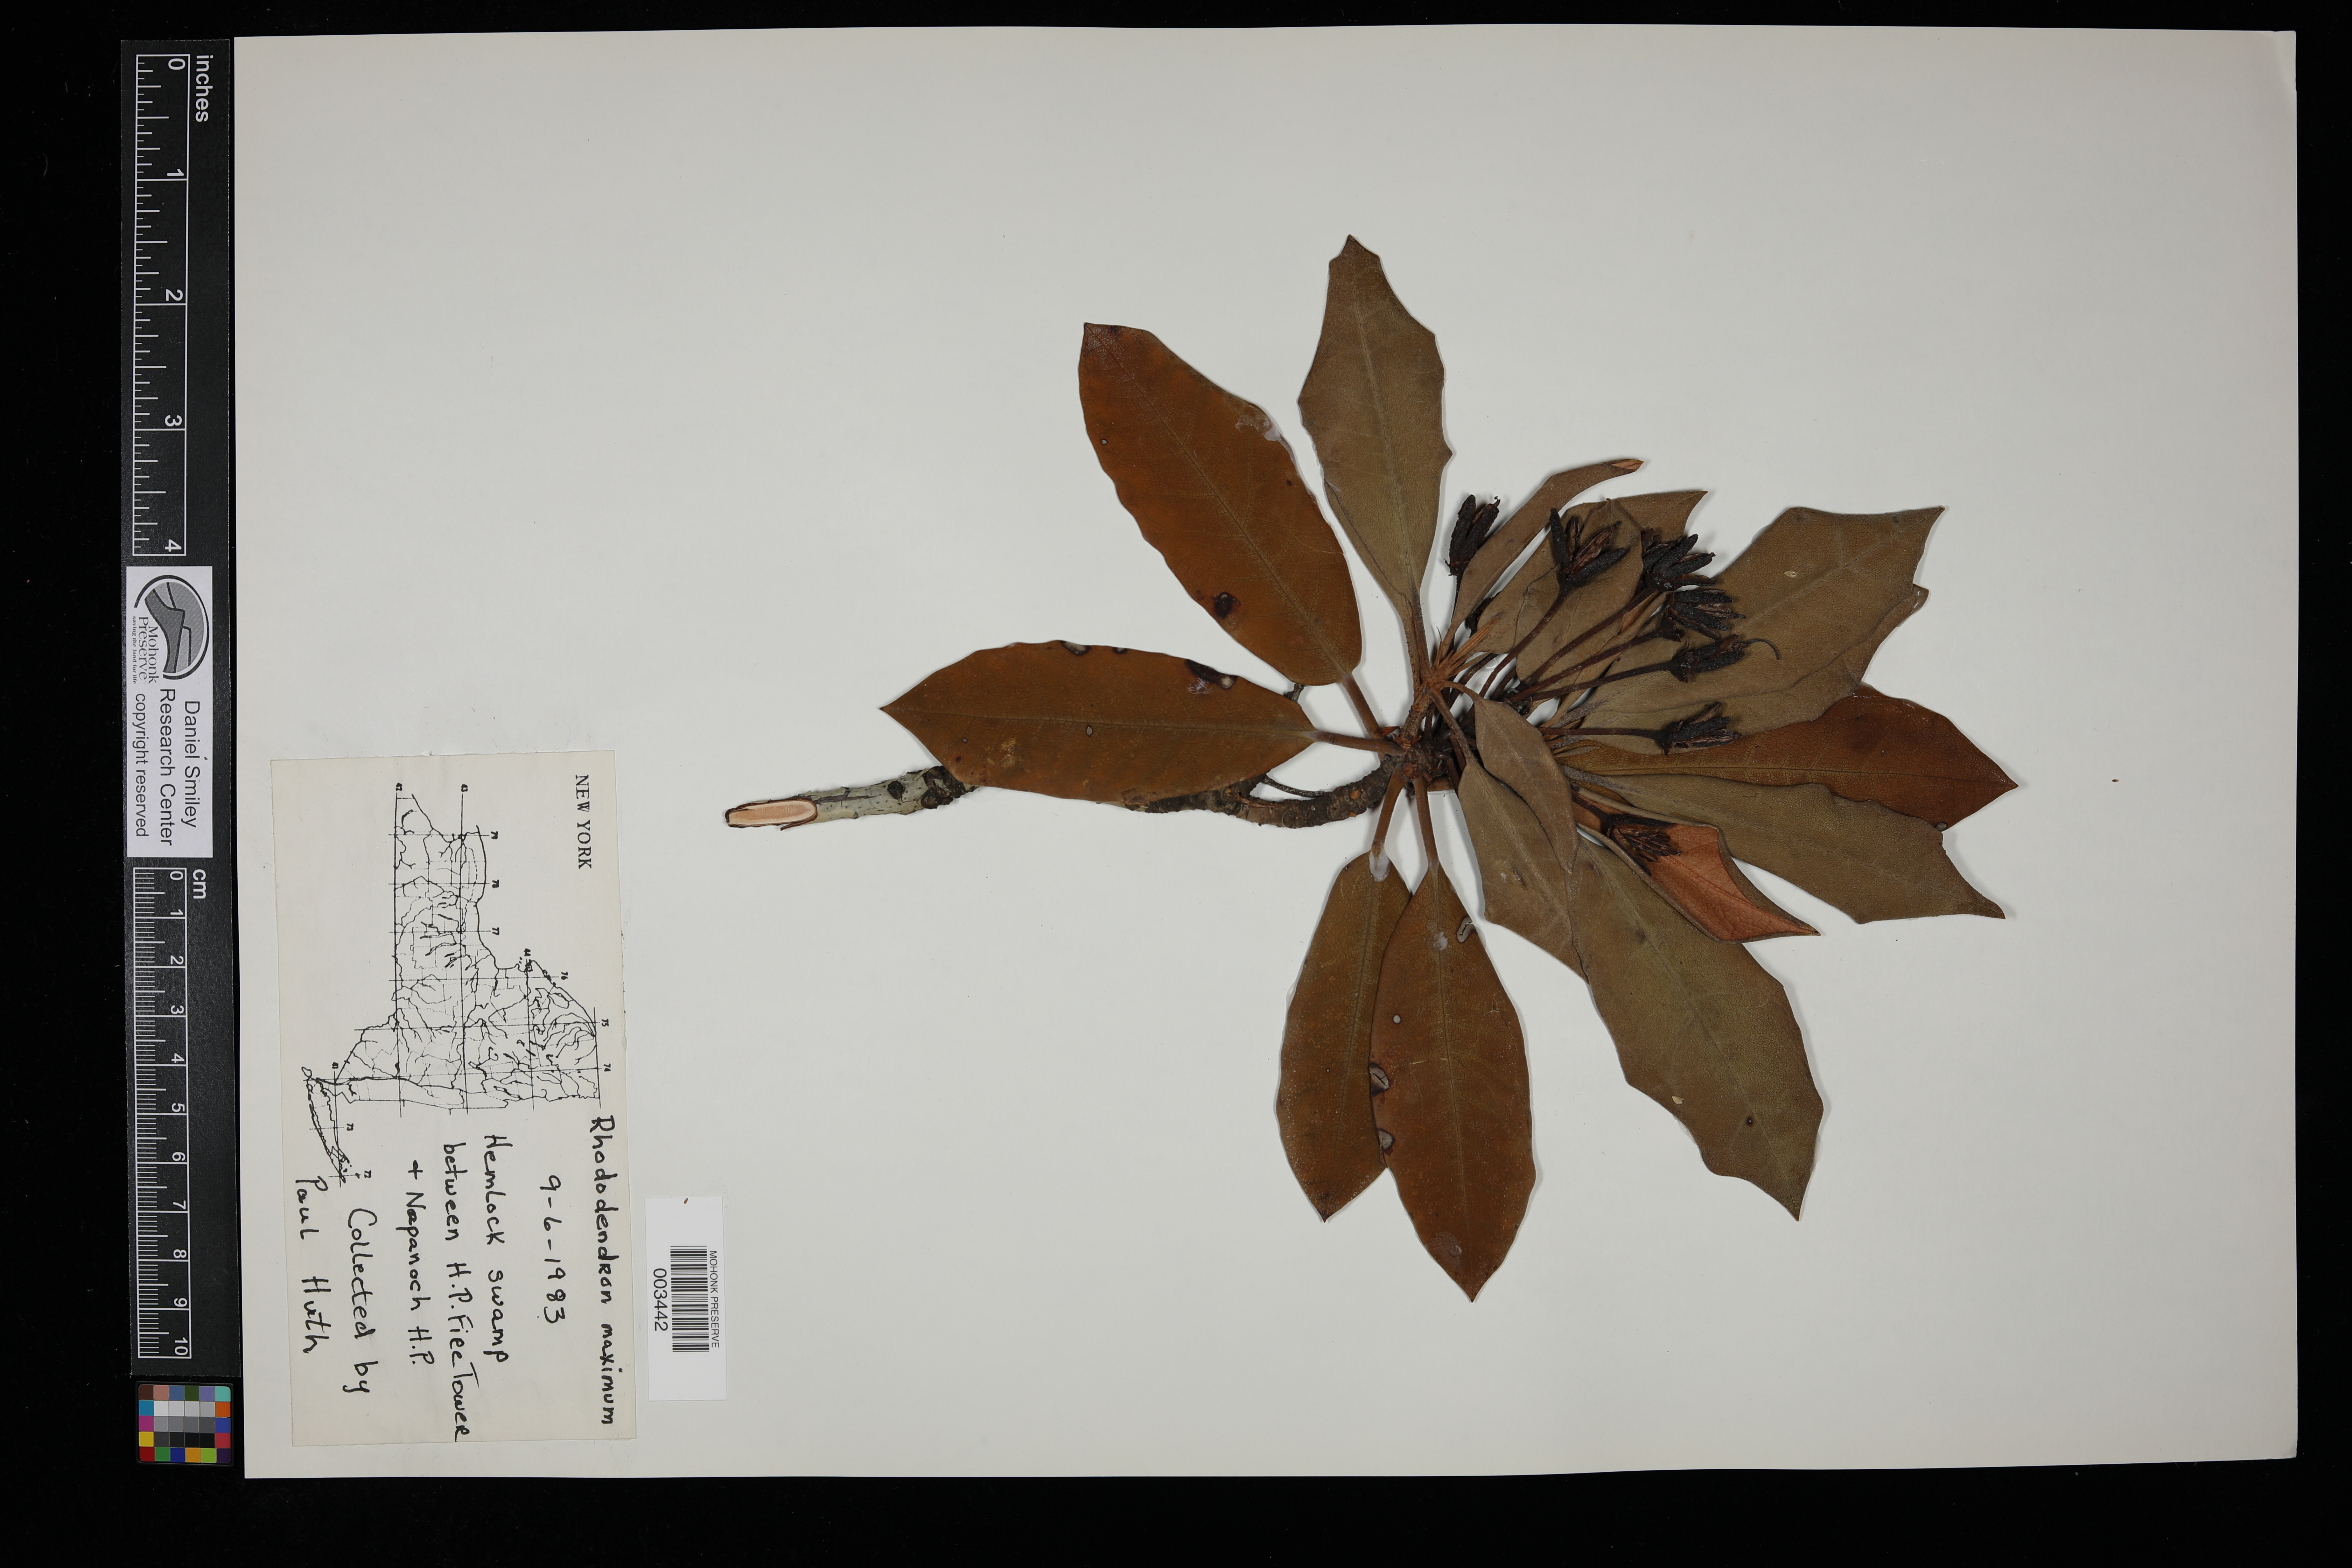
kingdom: Plantae
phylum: Tracheophyta
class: Magnoliopsida
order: Ericales
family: Ericaceae
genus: Rhododendron
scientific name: Rhododendron maximum
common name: Great rhododendron
